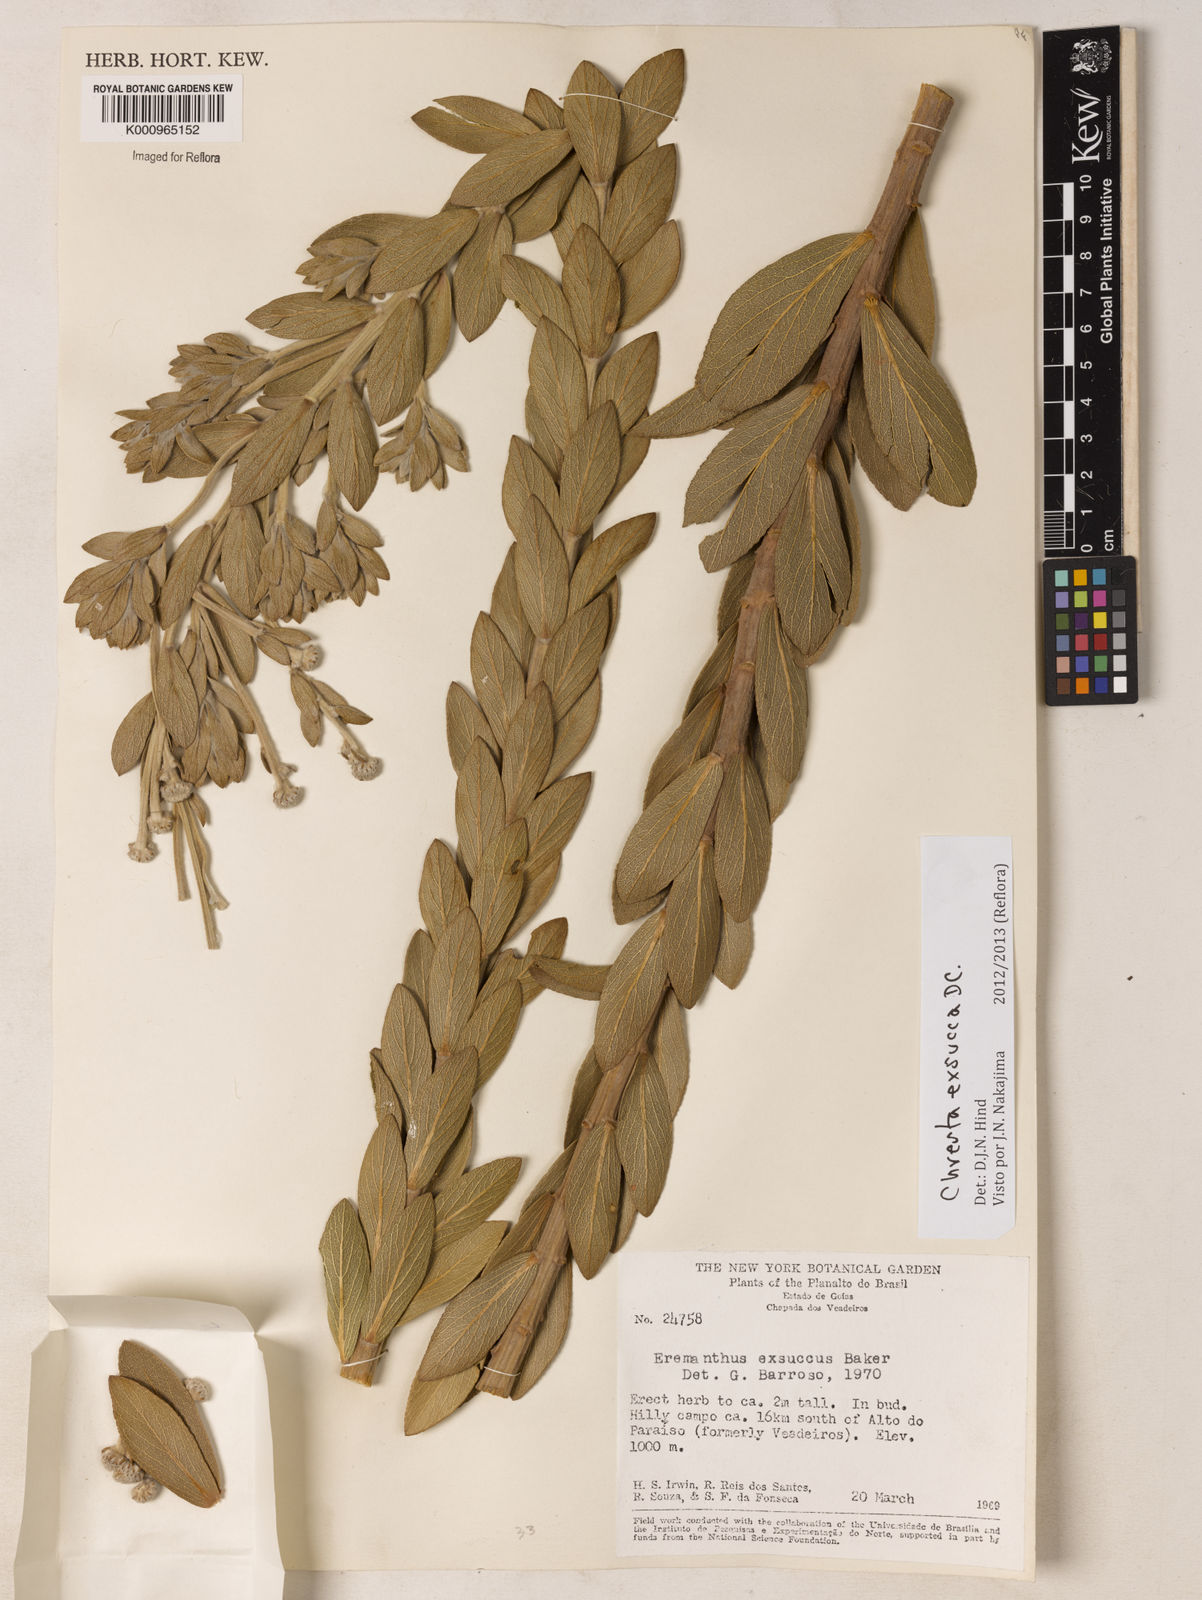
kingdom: Plantae
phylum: Tracheophyta
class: Magnoliopsida
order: Asterales
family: Asteraceae
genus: Chresta
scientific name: Chresta exsucca
